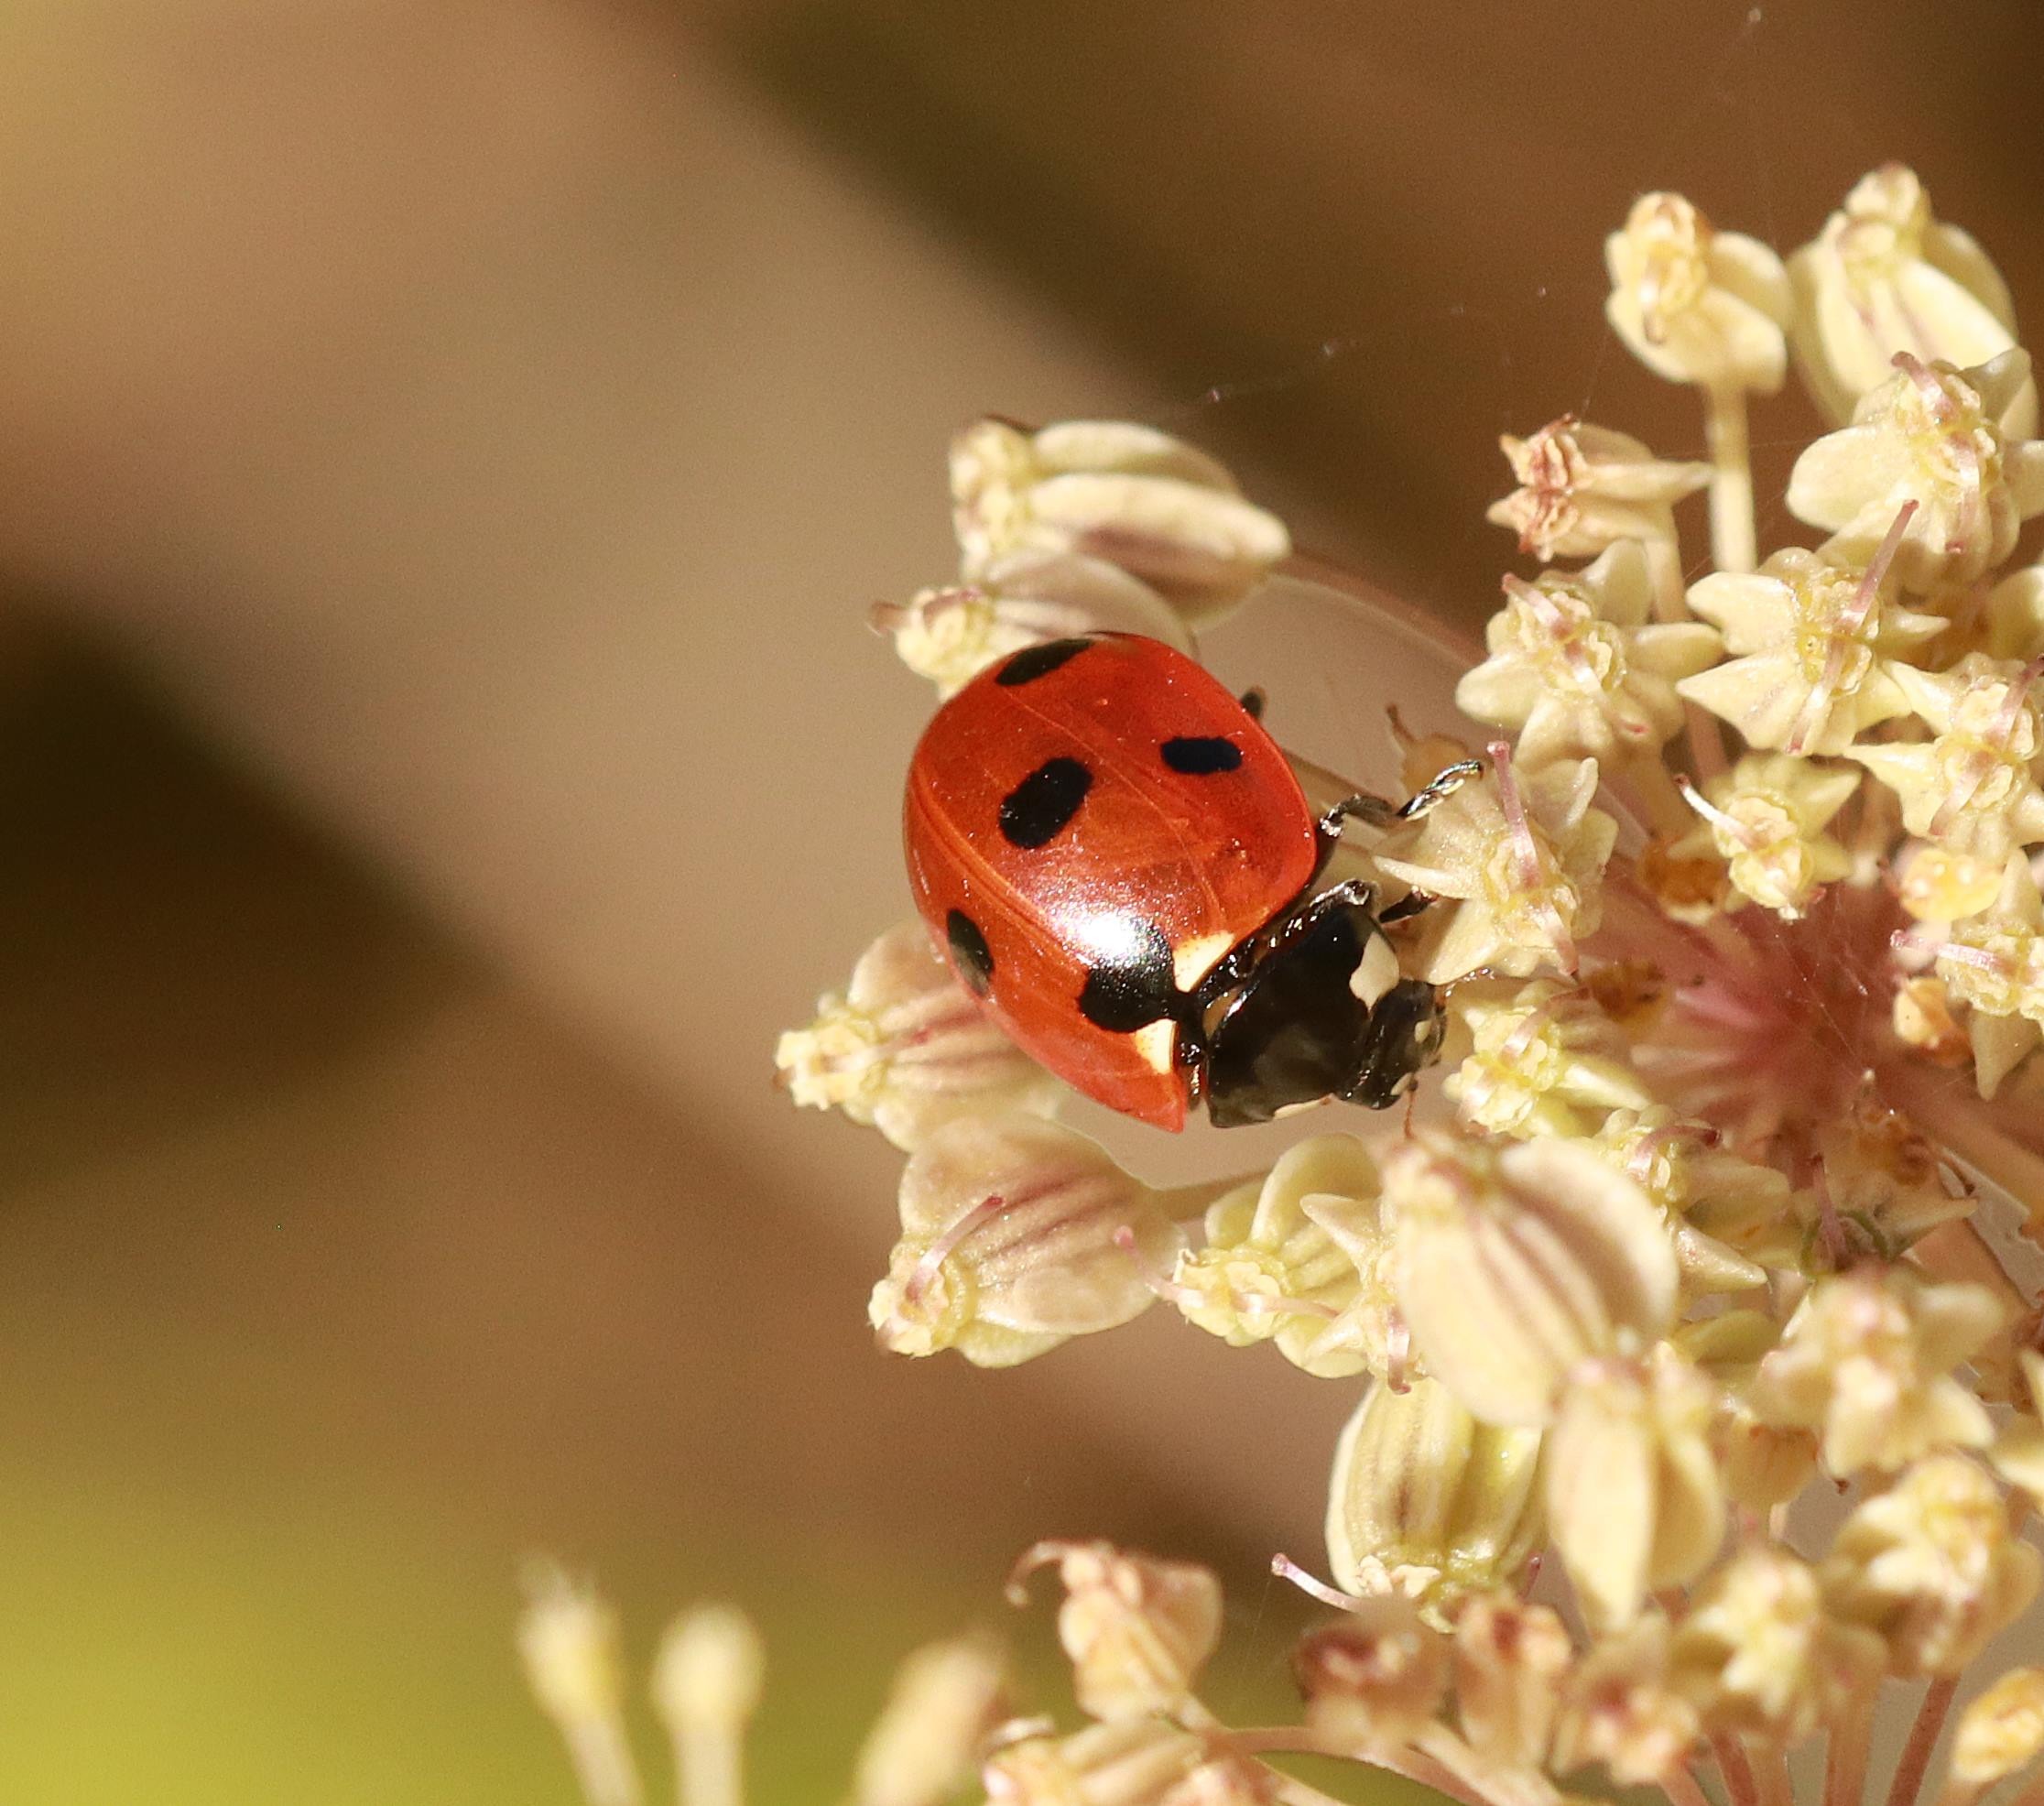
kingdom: Animalia
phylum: Arthropoda
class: Insecta
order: Coleoptera
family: Coccinellidae
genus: Coccinella
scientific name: Coccinella septempunctata
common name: Syvplettet mariehøne
